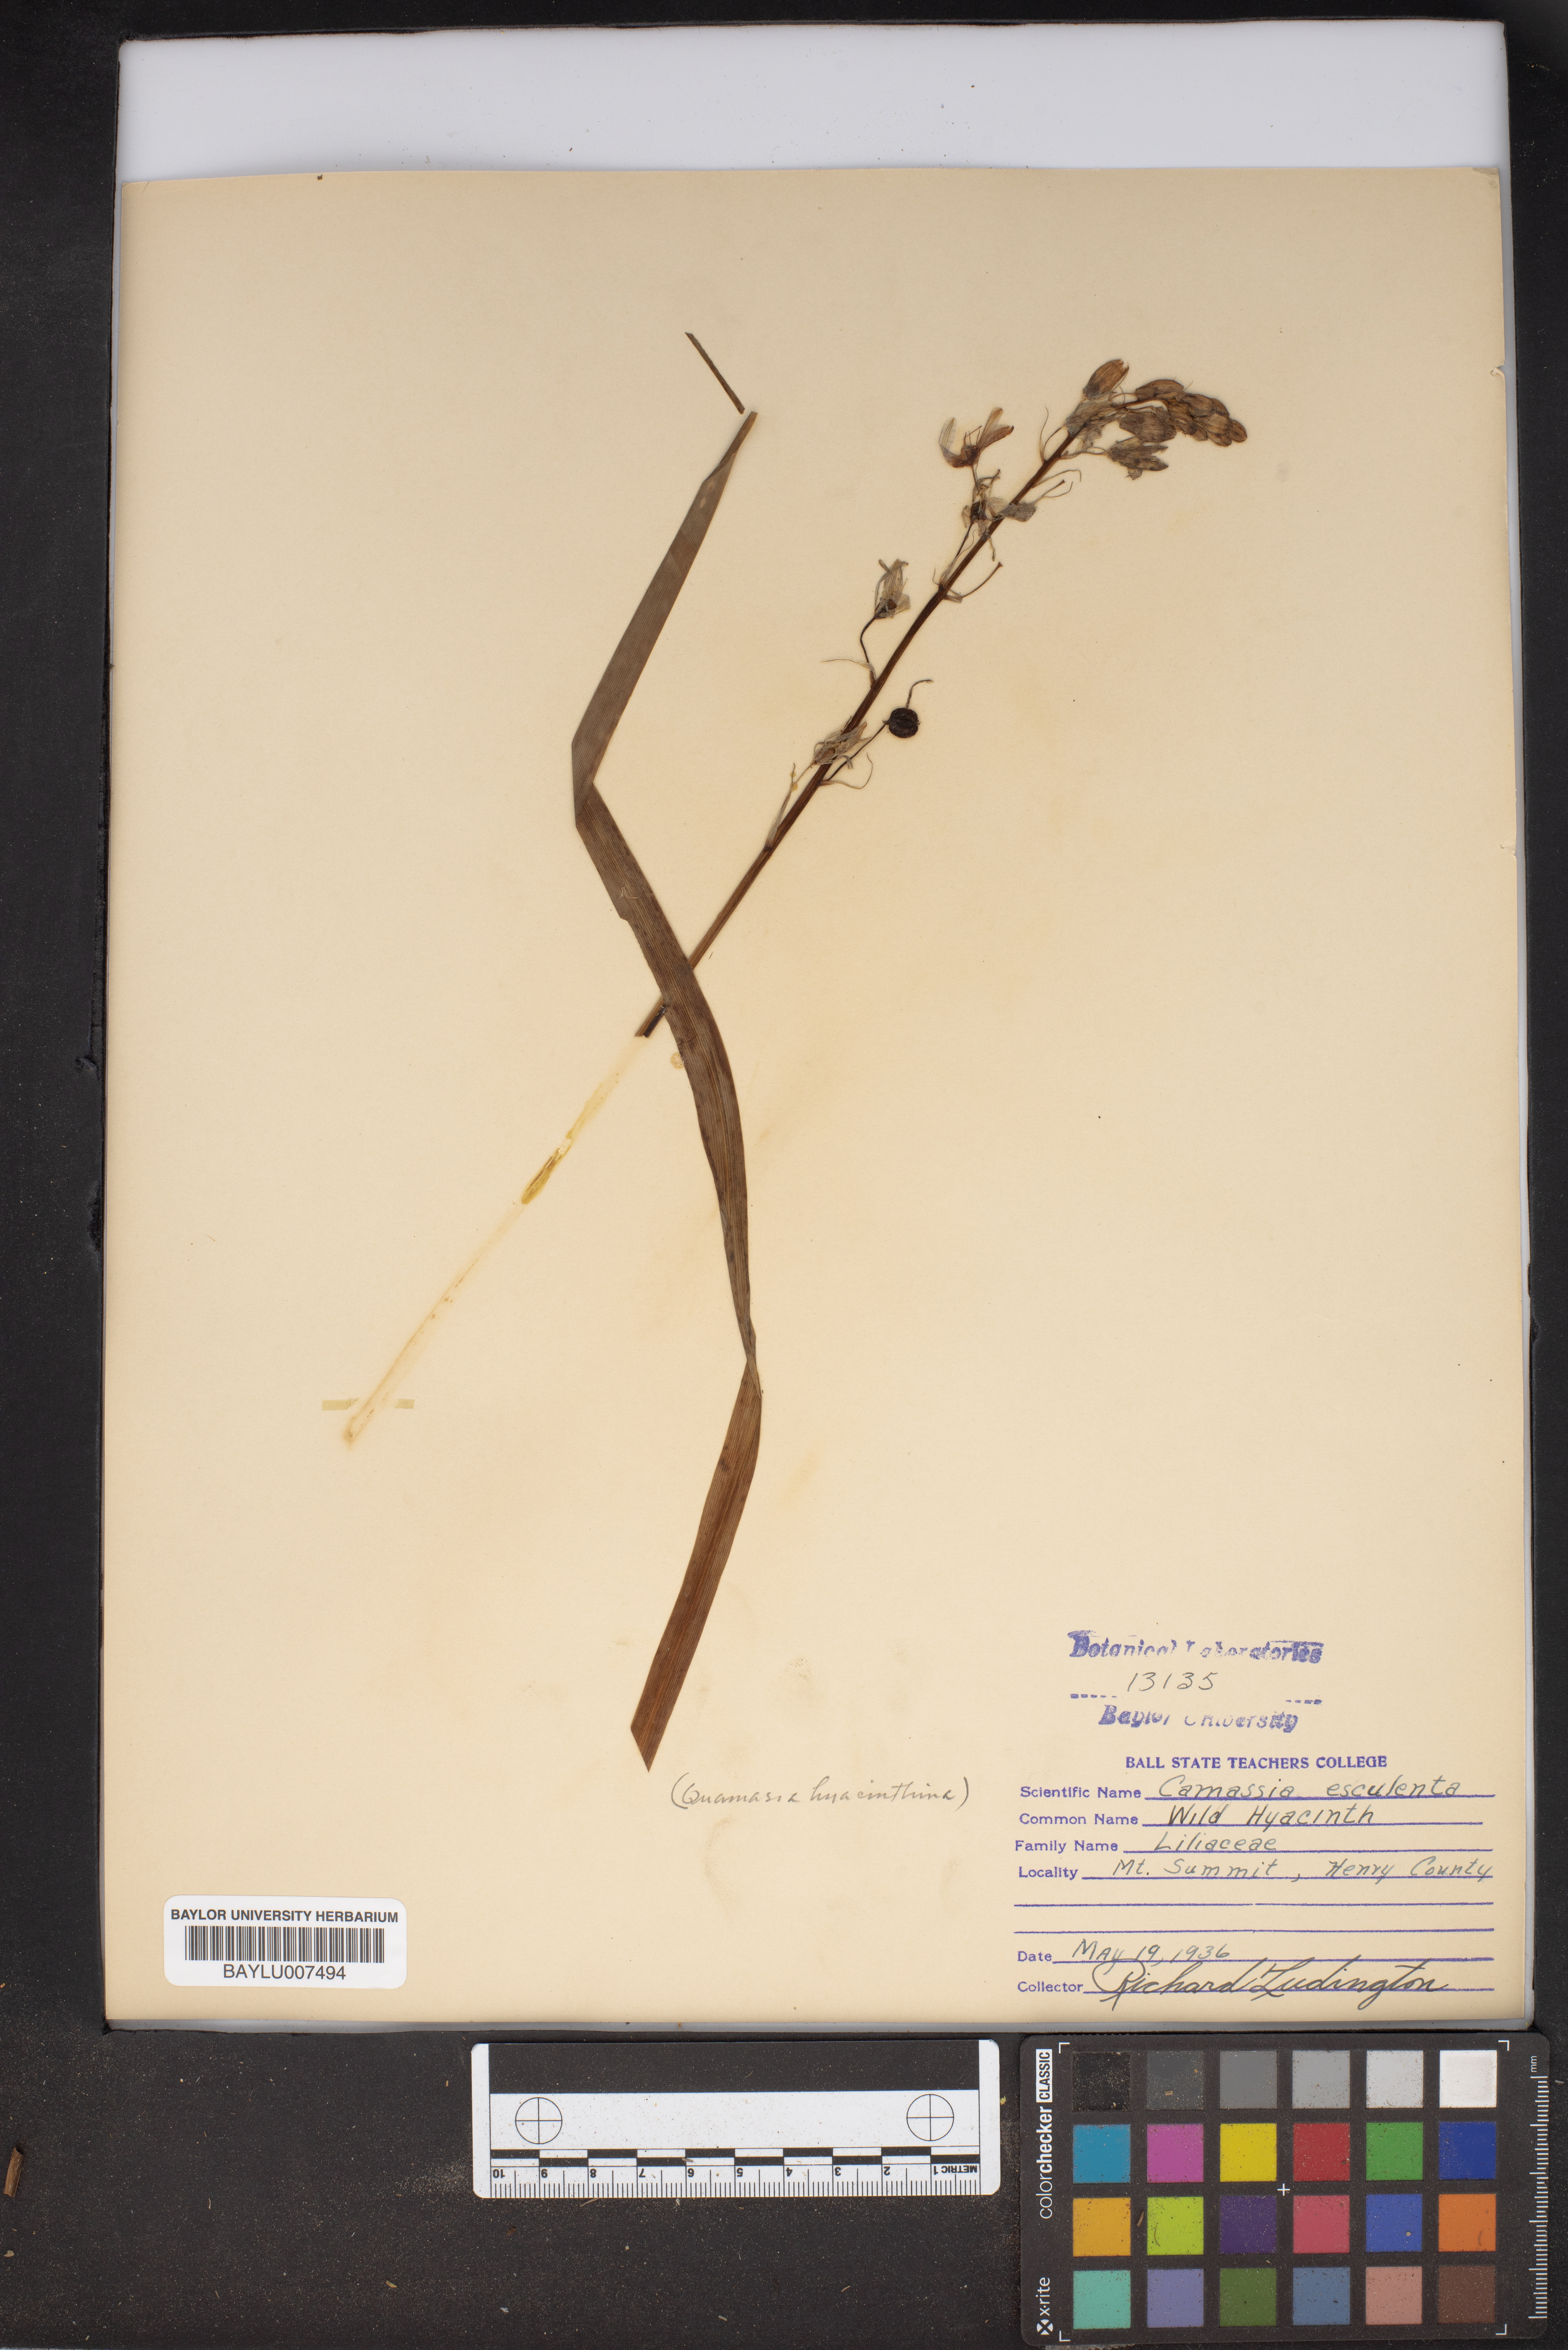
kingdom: Plantae
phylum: Tracheophyta
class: Liliopsida
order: Asparagales
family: Asparagaceae
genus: Camassia
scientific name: Camassia scilloides
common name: Wild hyacinth
